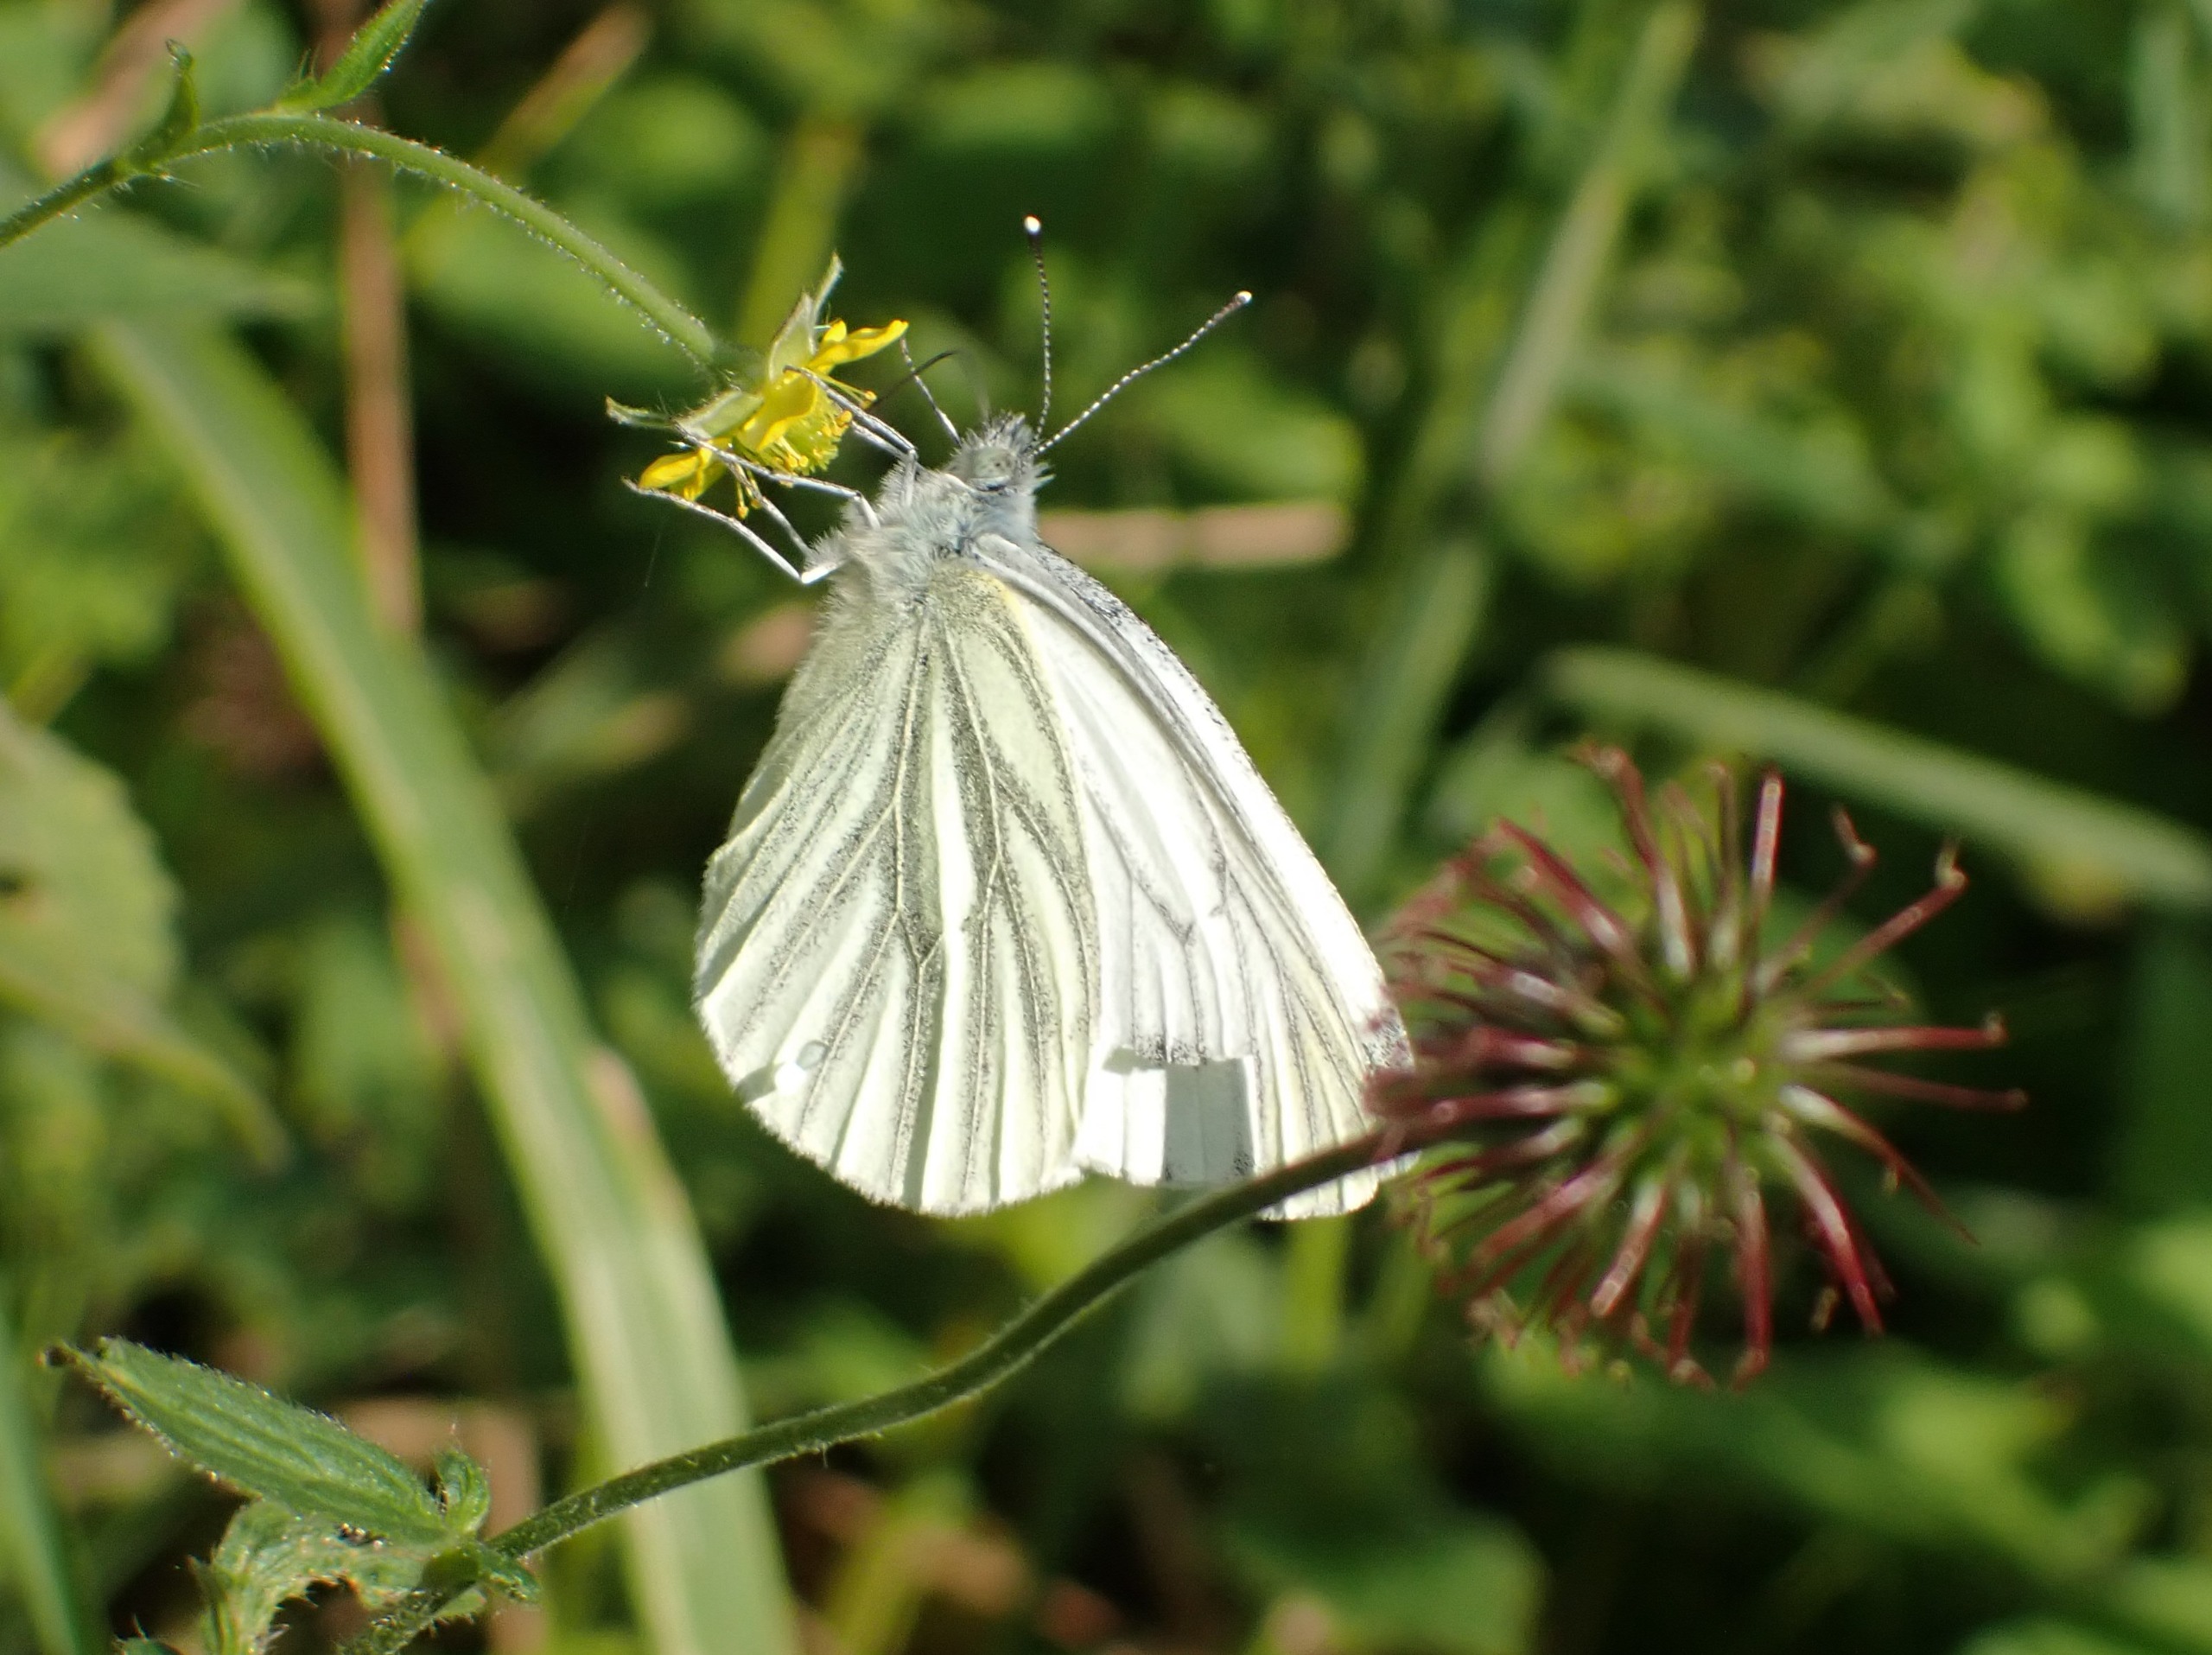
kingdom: Animalia
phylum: Arthropoda
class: Insecta
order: Lepidoptera
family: Pieridae
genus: Pieris
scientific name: Pieris napi
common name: Grønåret kålsommerfugl
